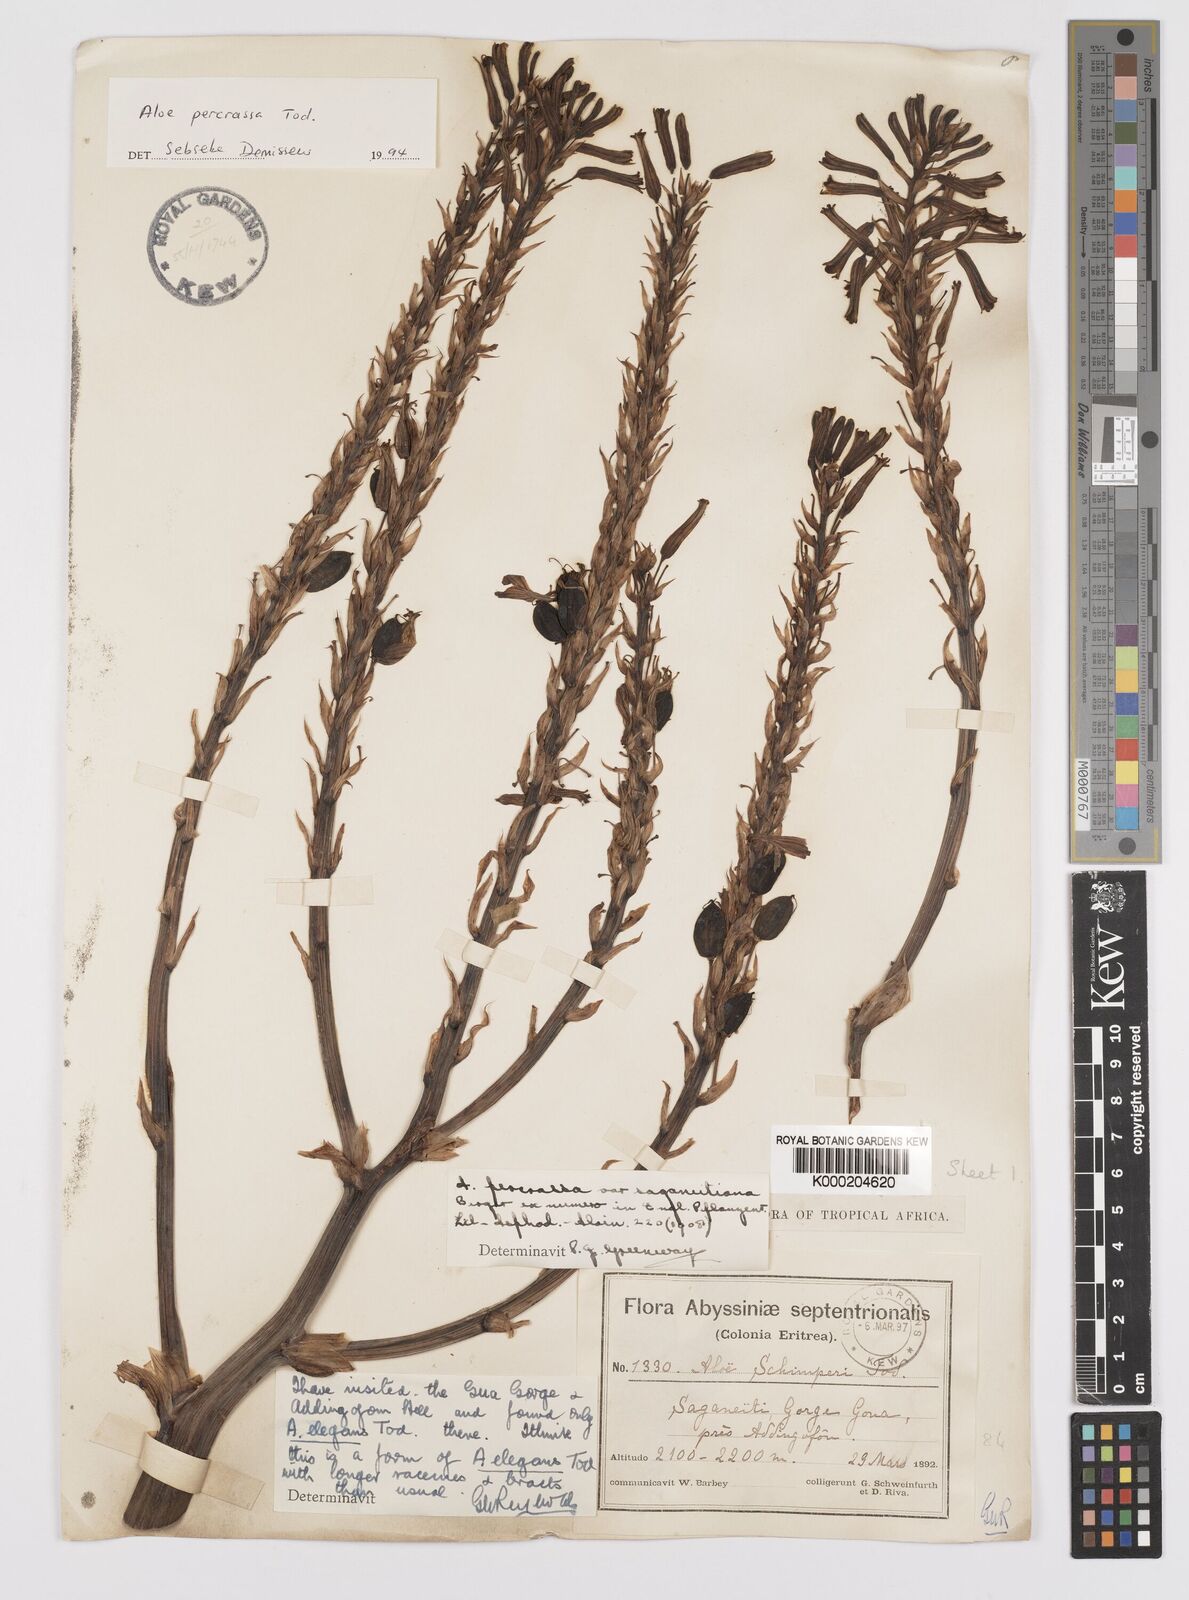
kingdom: Plantae
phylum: Tracheophyta
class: Liliopsida
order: Asparagales
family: Asphodelaceae
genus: Aloe
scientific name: Aloe percrassa
